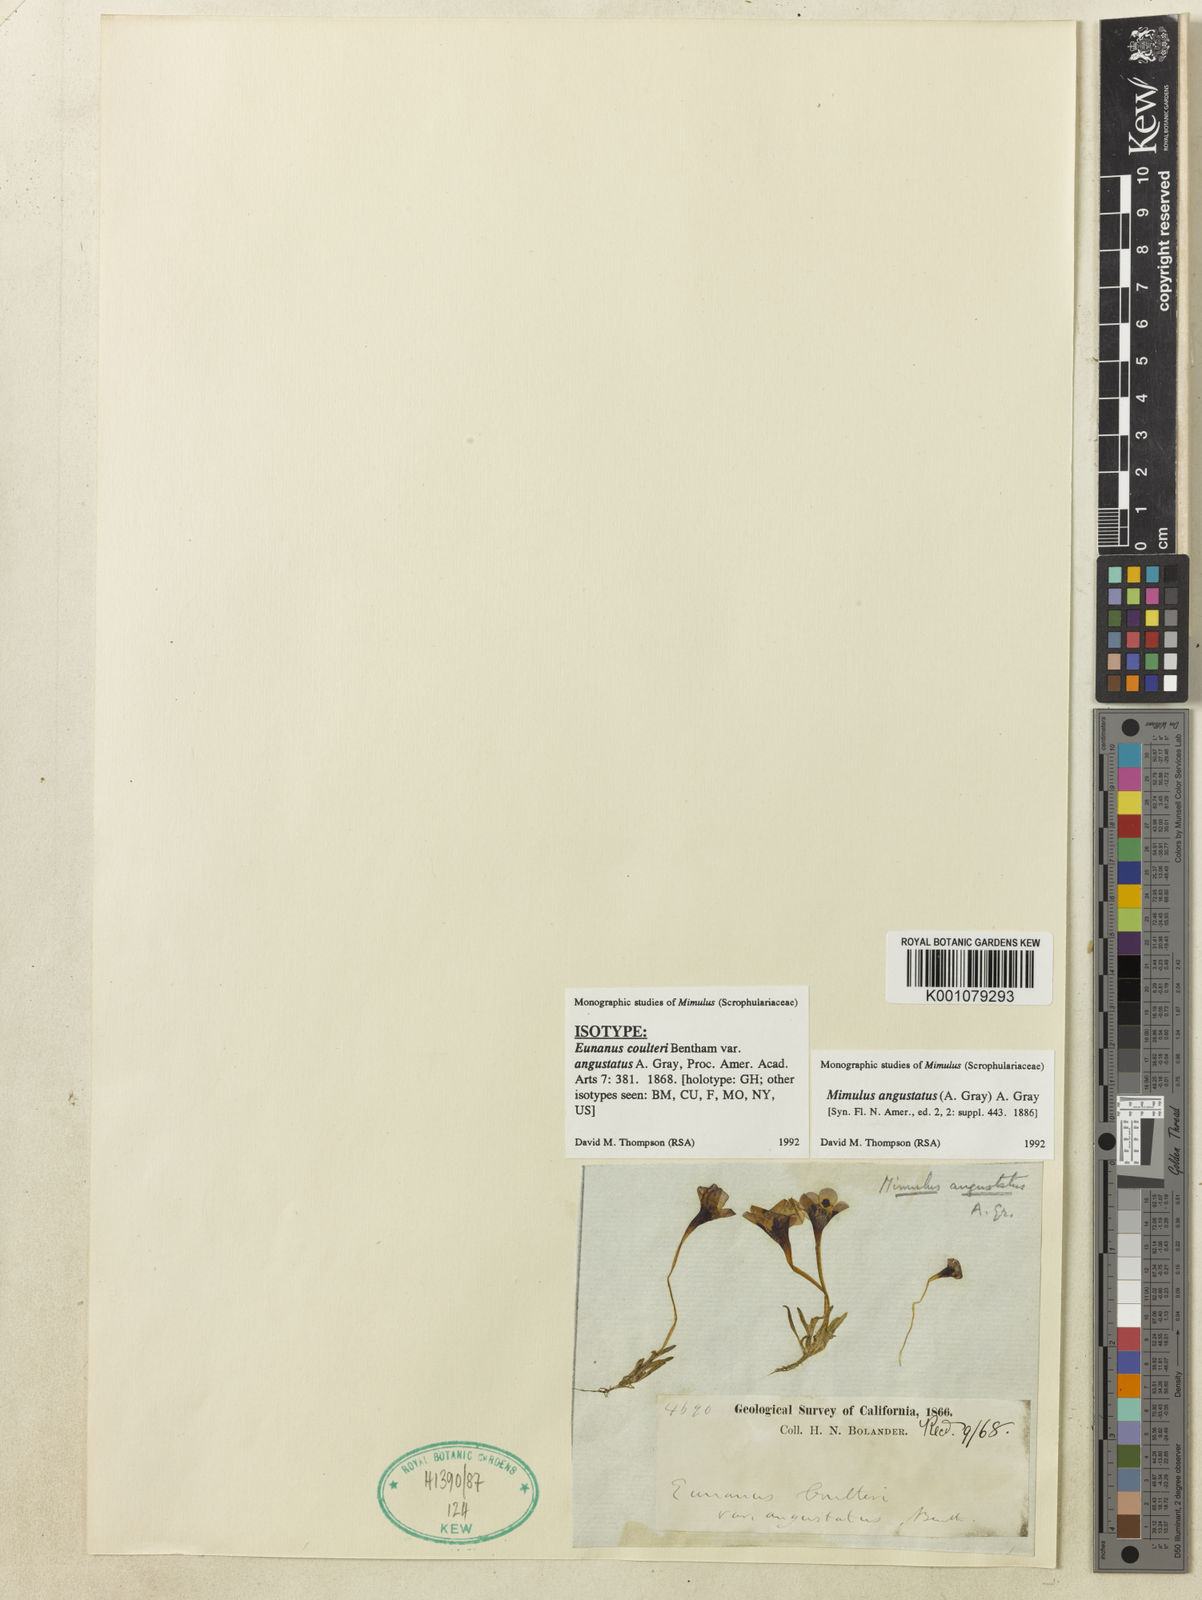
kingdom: Plantae
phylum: Tracheophyta
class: Magnoliopsida
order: Lamiales
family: Phrymaceae
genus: Diplacus
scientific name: Diplacus angustatus
